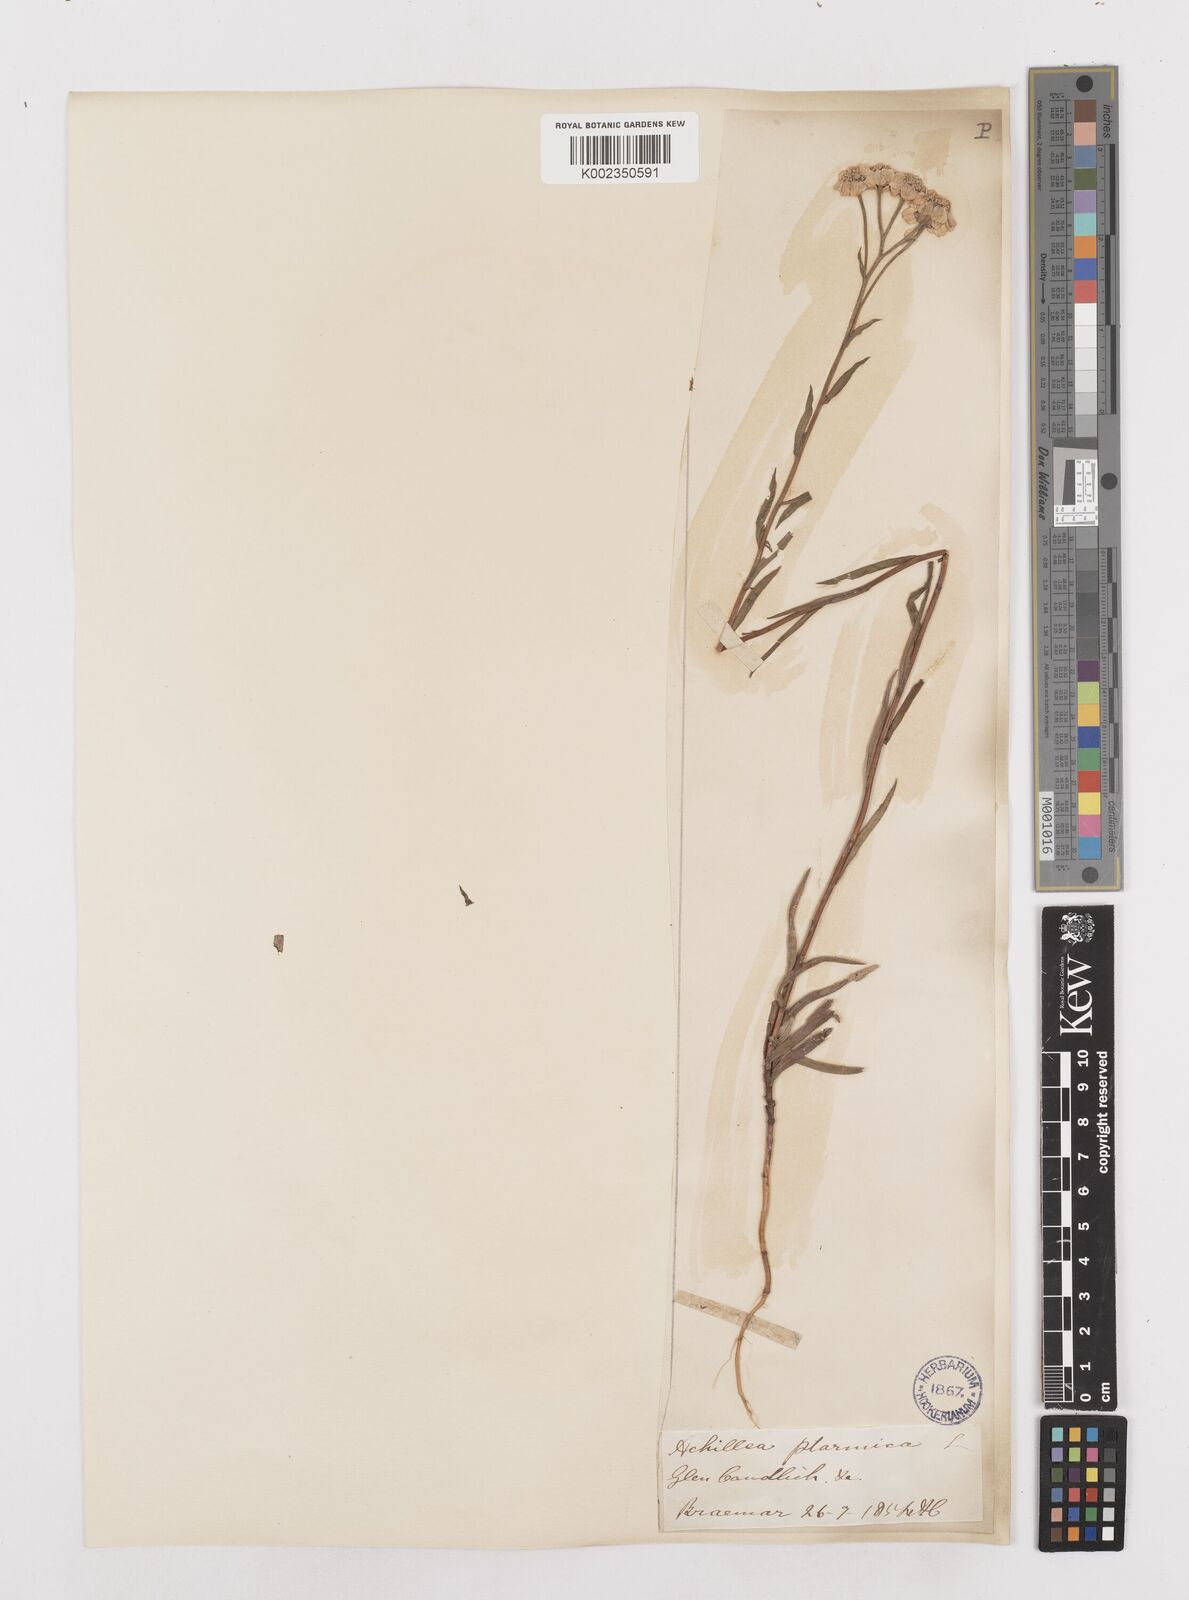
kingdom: Plantae
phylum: Tracheophyta
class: Magnoliopsida
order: Asterales
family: Asteraceae
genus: Achillea
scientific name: Achillea
